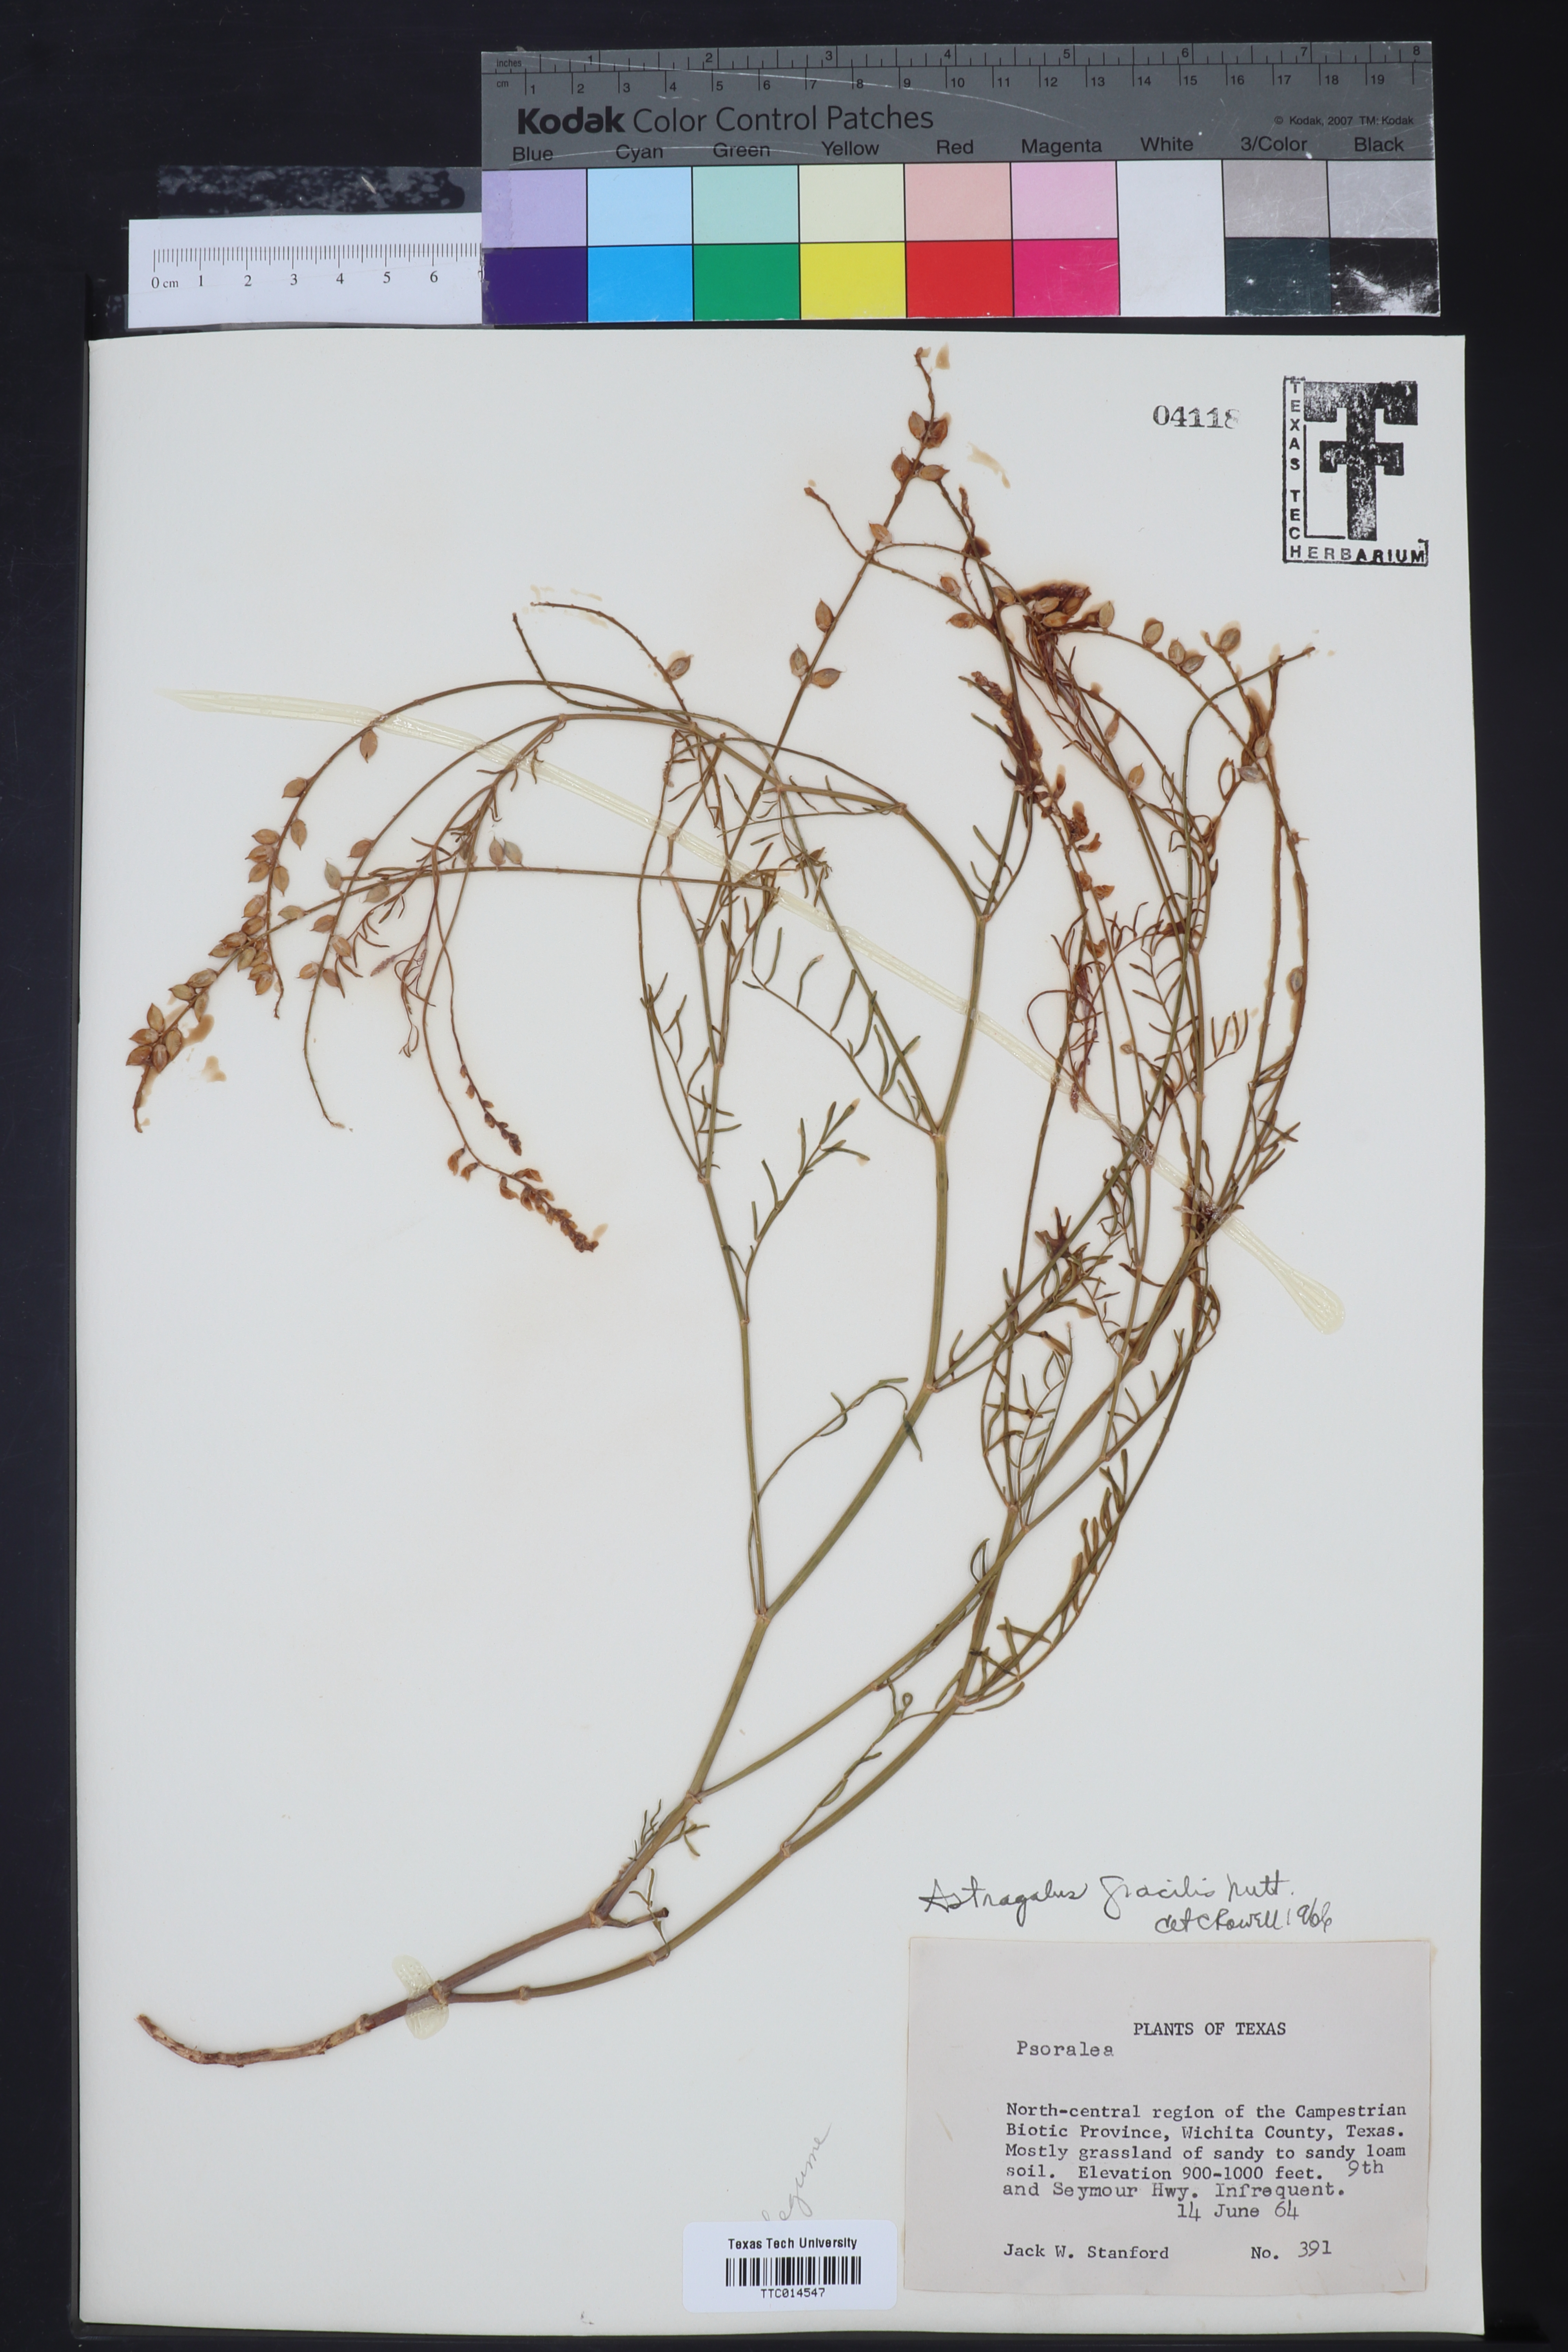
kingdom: Plantae
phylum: Tracheophyta
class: Magnoliopsida
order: Fabales
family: Fabaceae
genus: Astragalus
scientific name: Astragalus gracilis
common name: Slender milk-vetch
